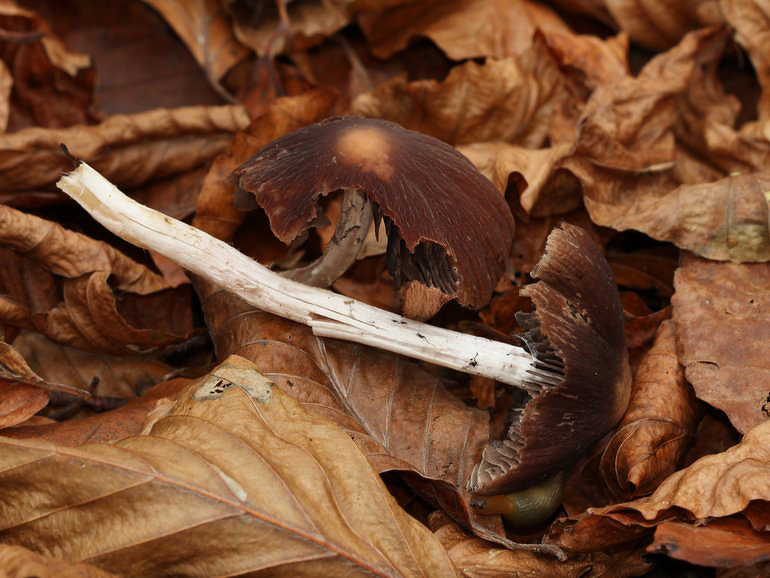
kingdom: Fungi
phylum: Basidiomycota
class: Agaricomycetes
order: Agaricales
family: Psathyrellaceae
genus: Psathyrella
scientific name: Psathyrella bipellis
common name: vinrød mørkhat
